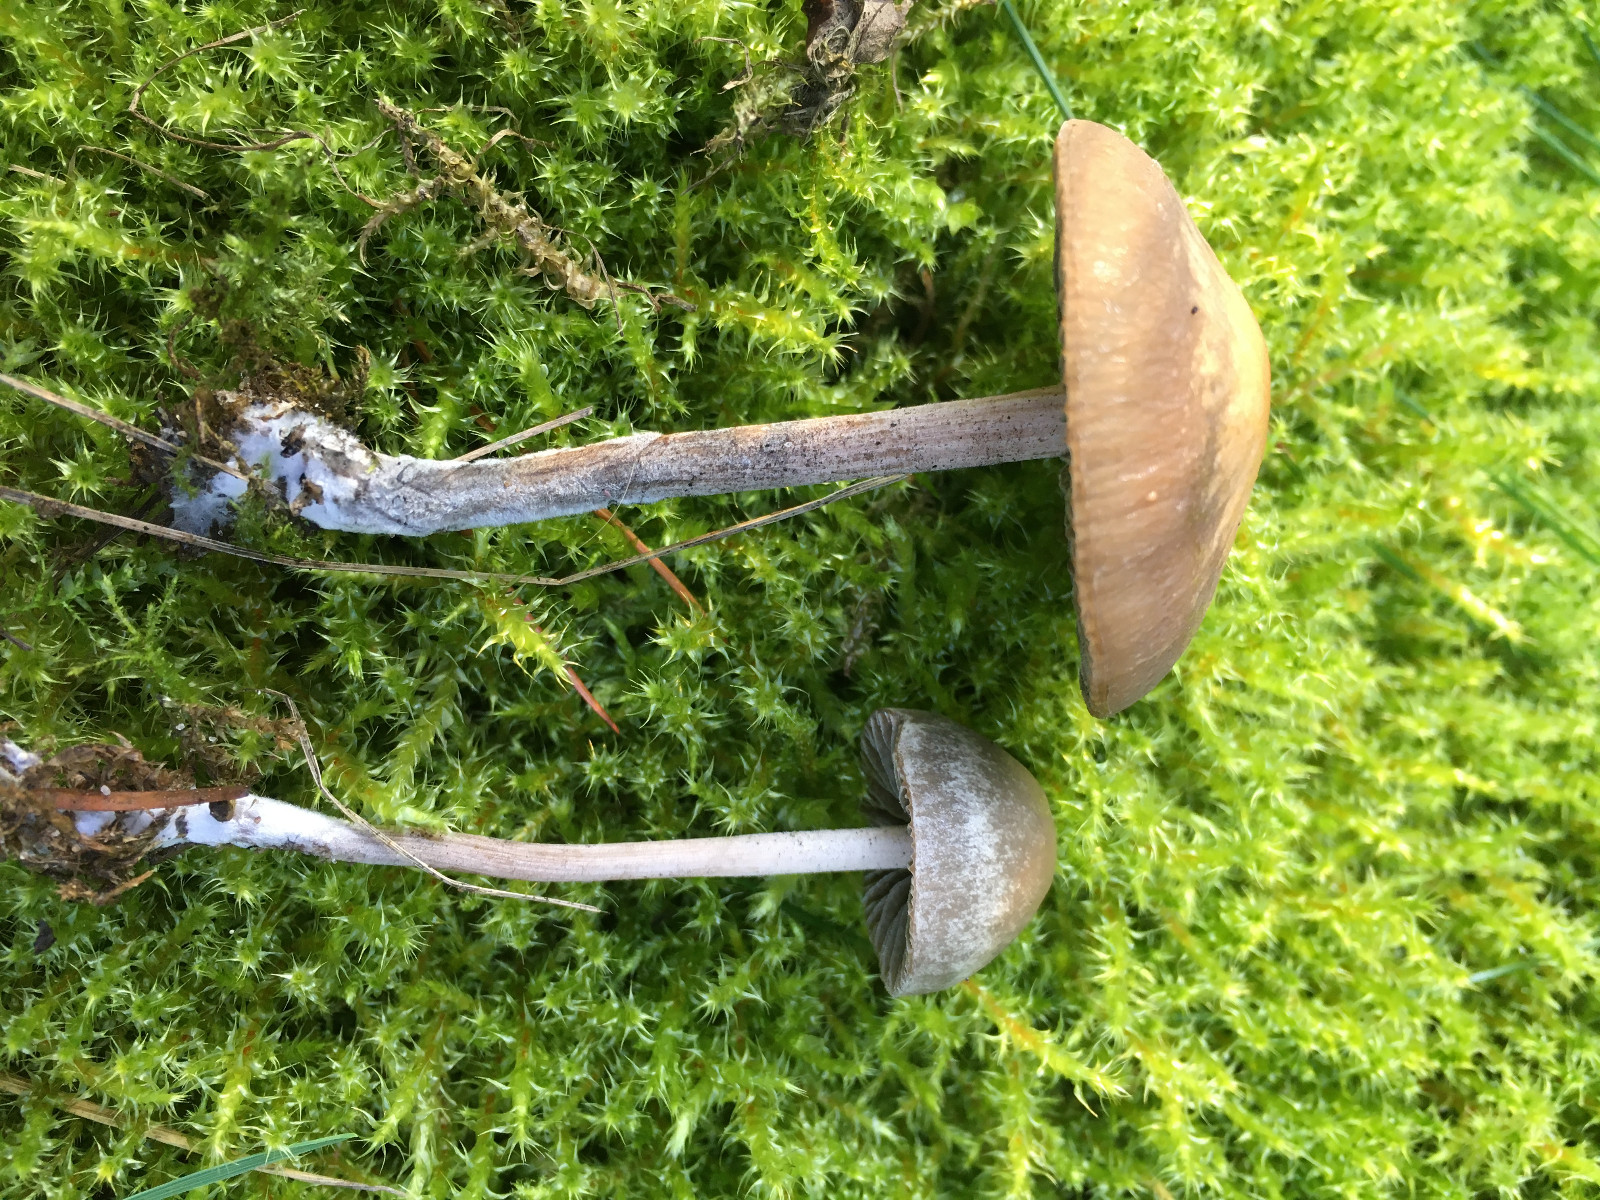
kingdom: Fungi
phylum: Basidiomycota
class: Agaricomycetes
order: Agaricales
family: Bolbitiaceae
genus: Panaeolus
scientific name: Panaeolus olivaceus
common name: lysstokket glanshat
